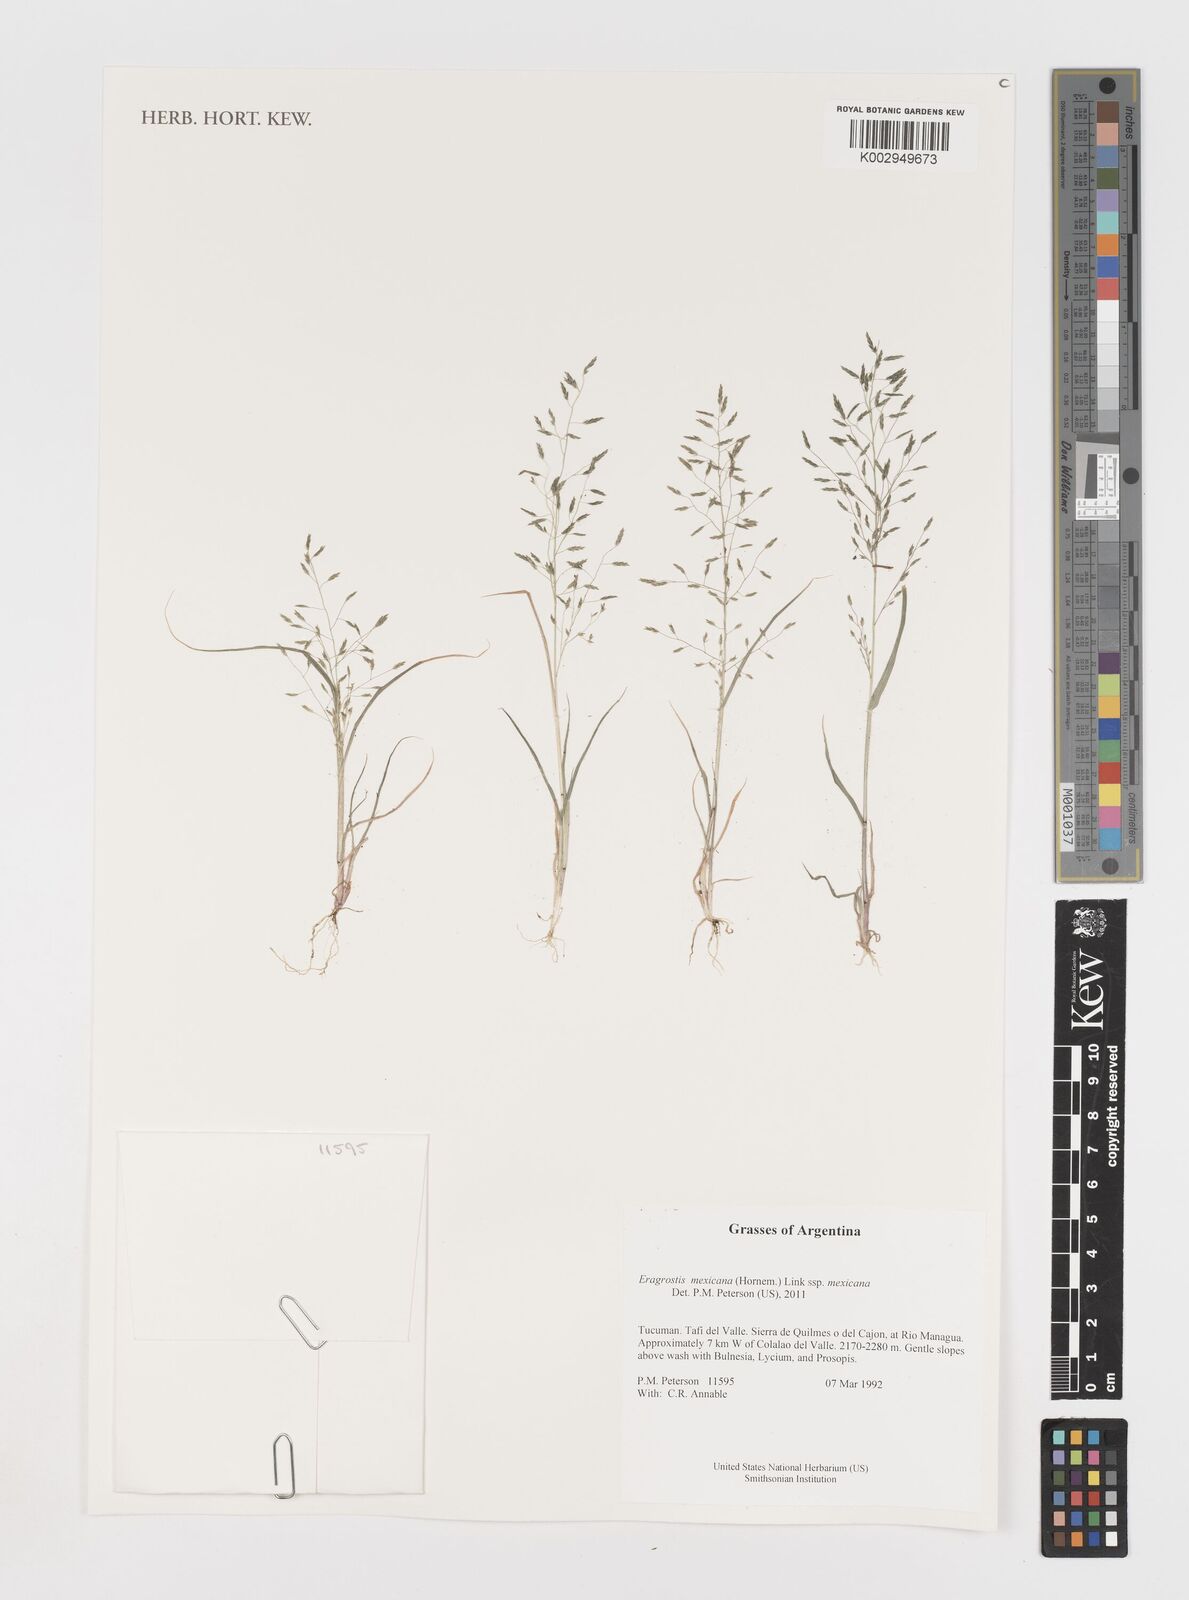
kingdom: Plantae
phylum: Tracheophyta
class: Liliopsida
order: Poales
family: Poaceae
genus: Eragrostis
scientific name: Eragrostis mexicana
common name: Mexican love grass
